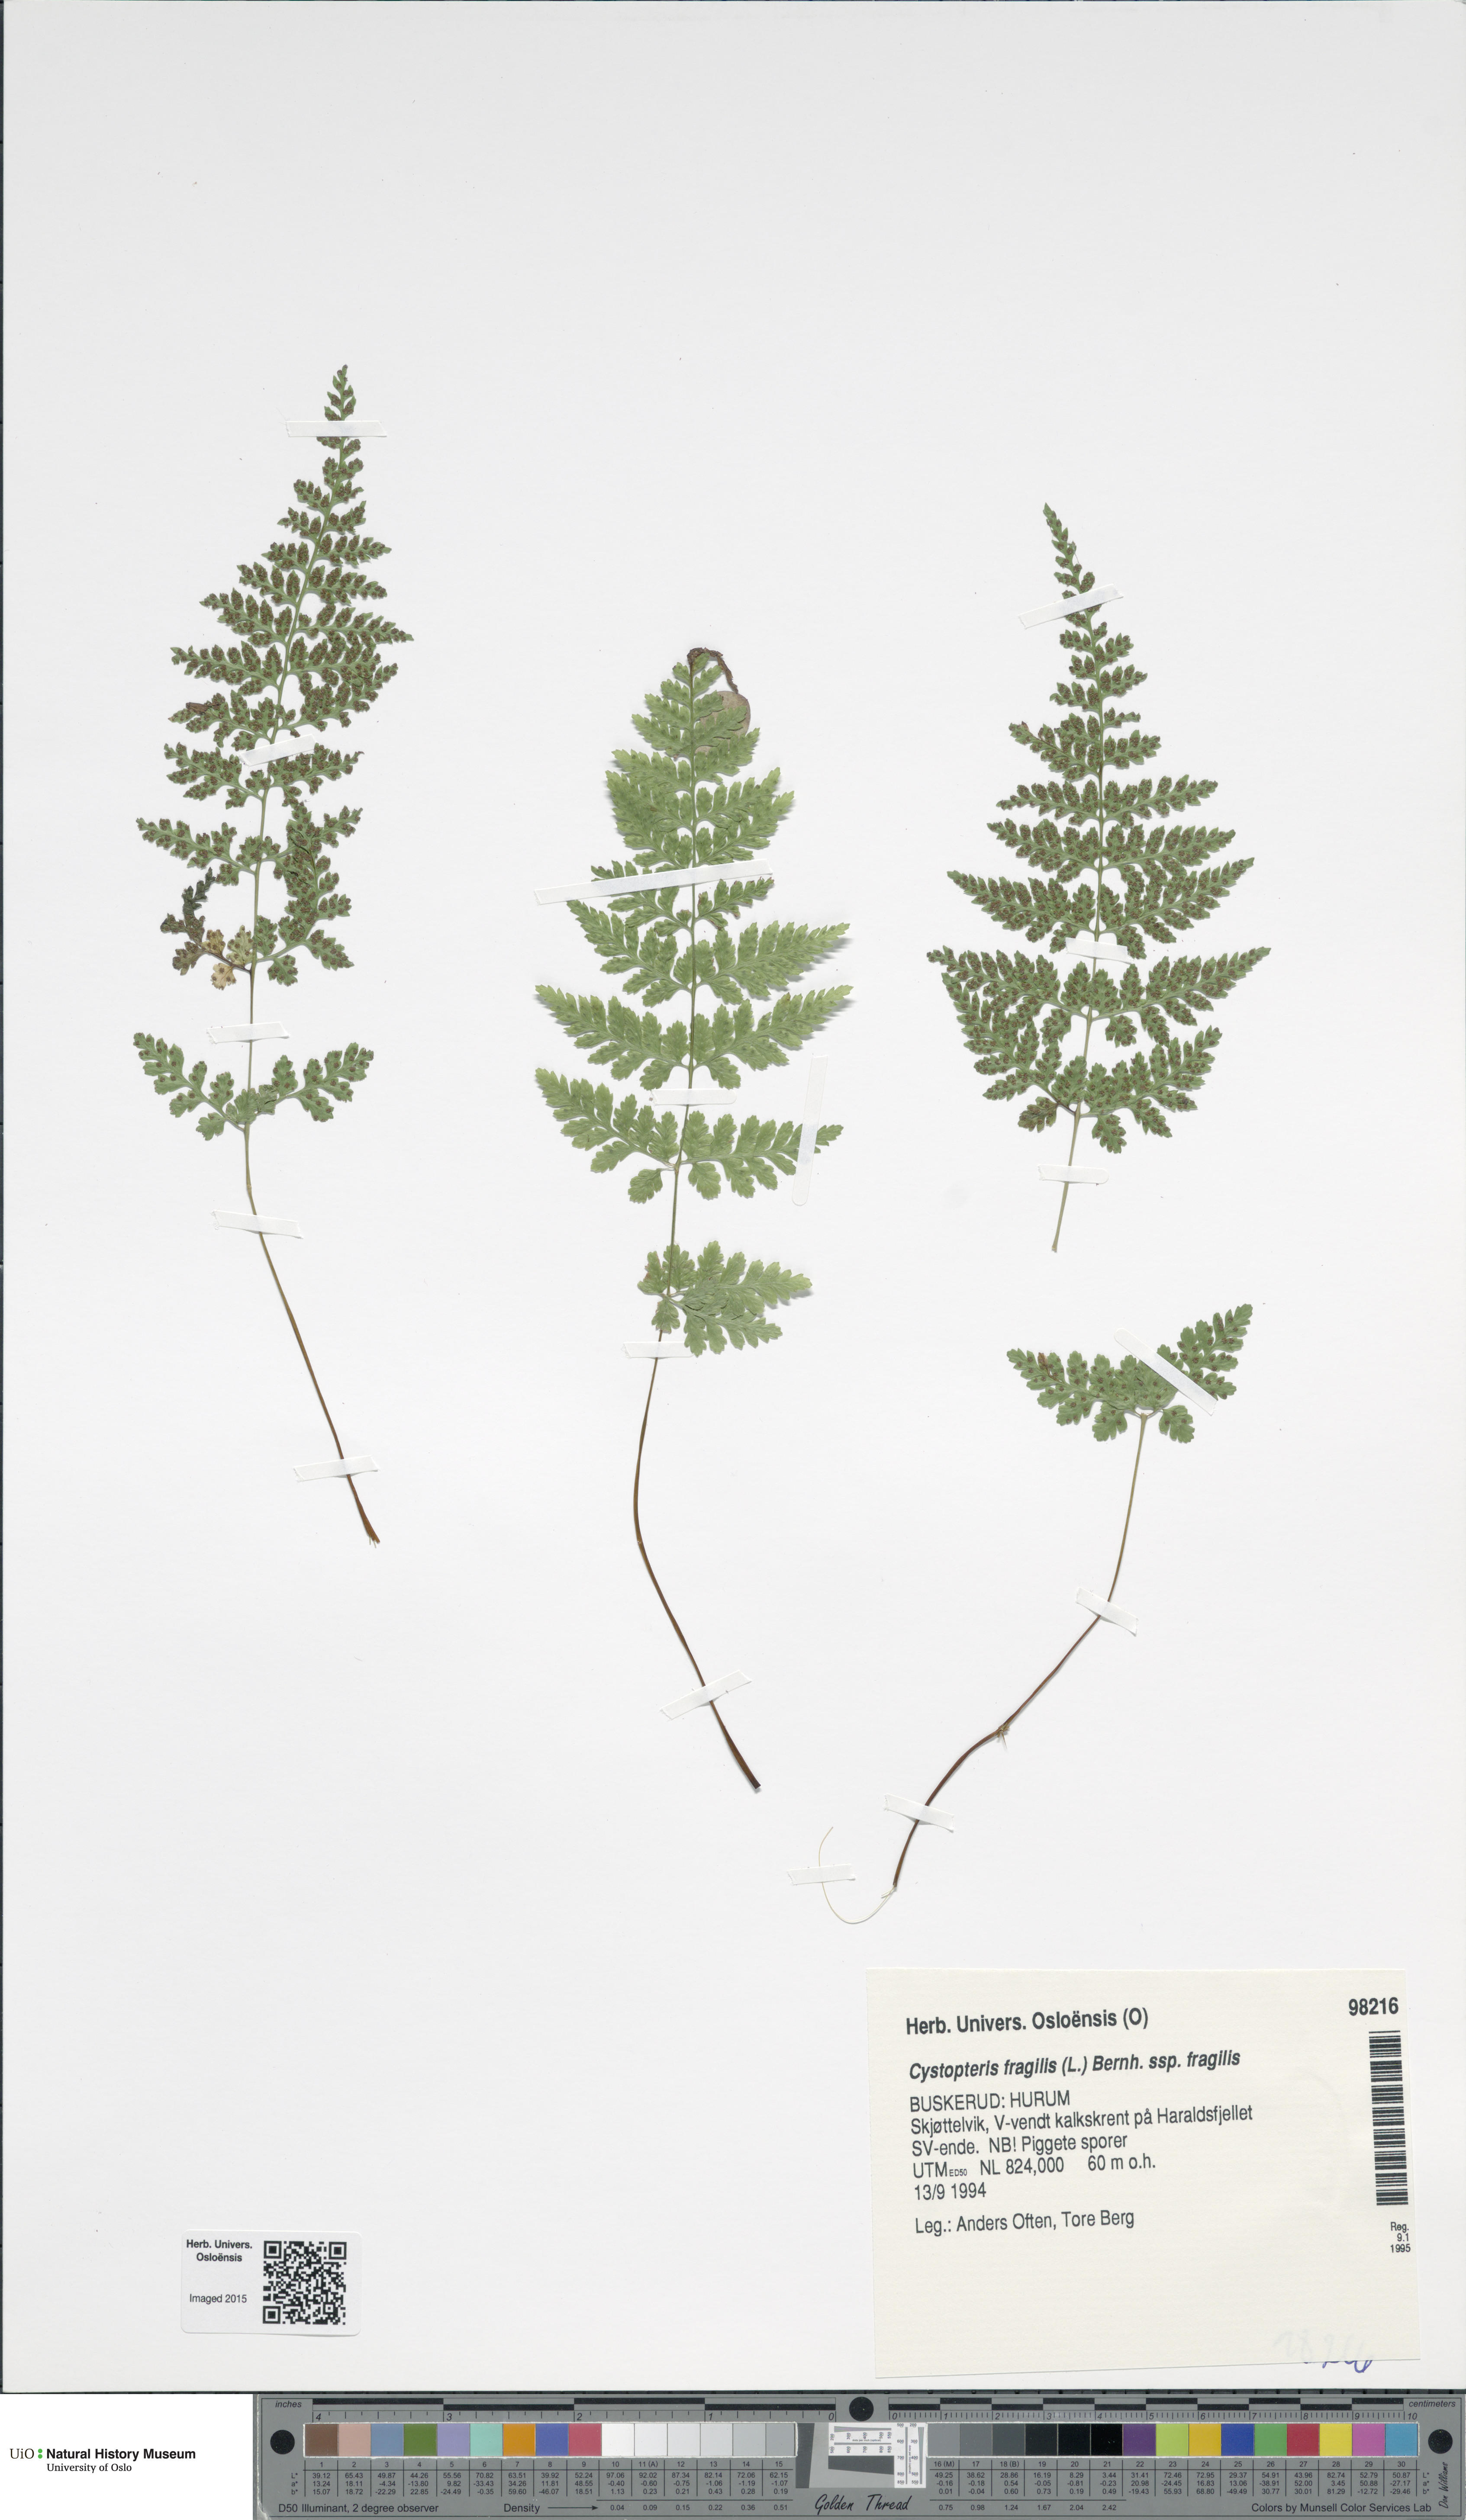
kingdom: Plantae
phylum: Tracheophyta
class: Polypodiopsida
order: Polypodiales
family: Cystopteridaceae
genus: Cystopteris
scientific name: Cystopteris fragilis
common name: Brittle bladder fern
